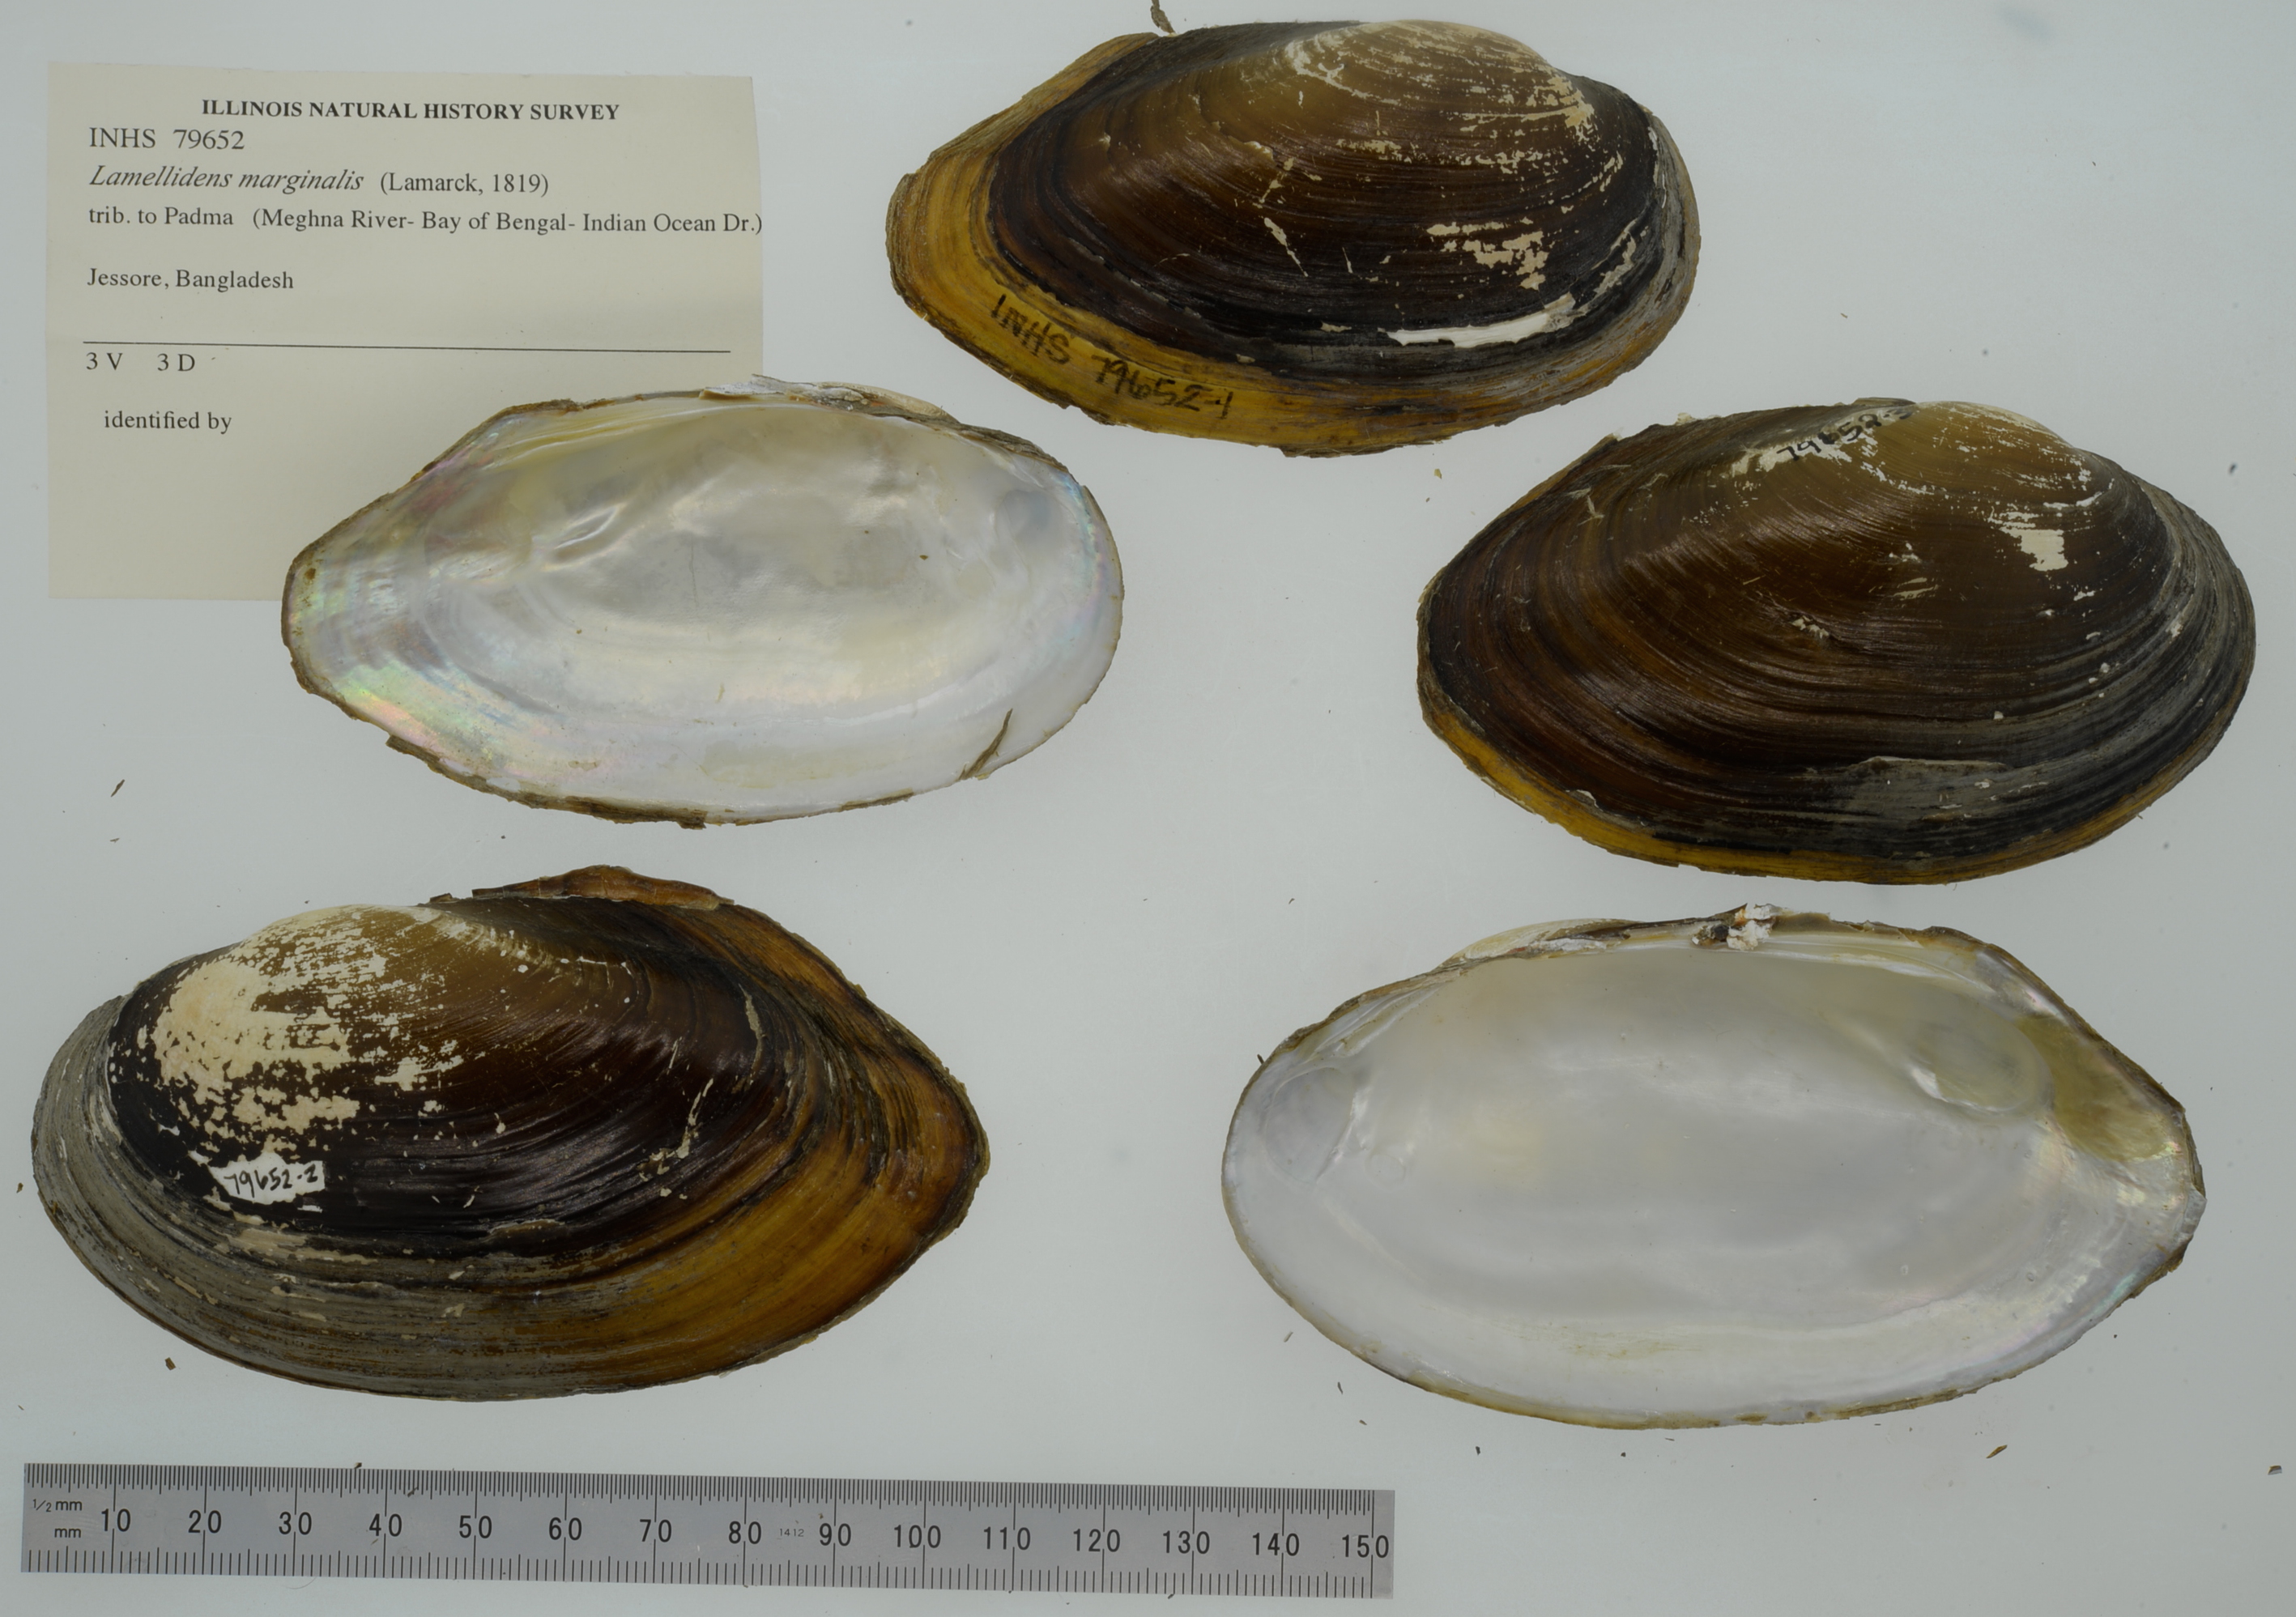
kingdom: Animalia
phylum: Mollusca
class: Bivalvia
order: Unionida
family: Unionidae
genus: Lamellidens
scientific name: Lamellidens marginalis
